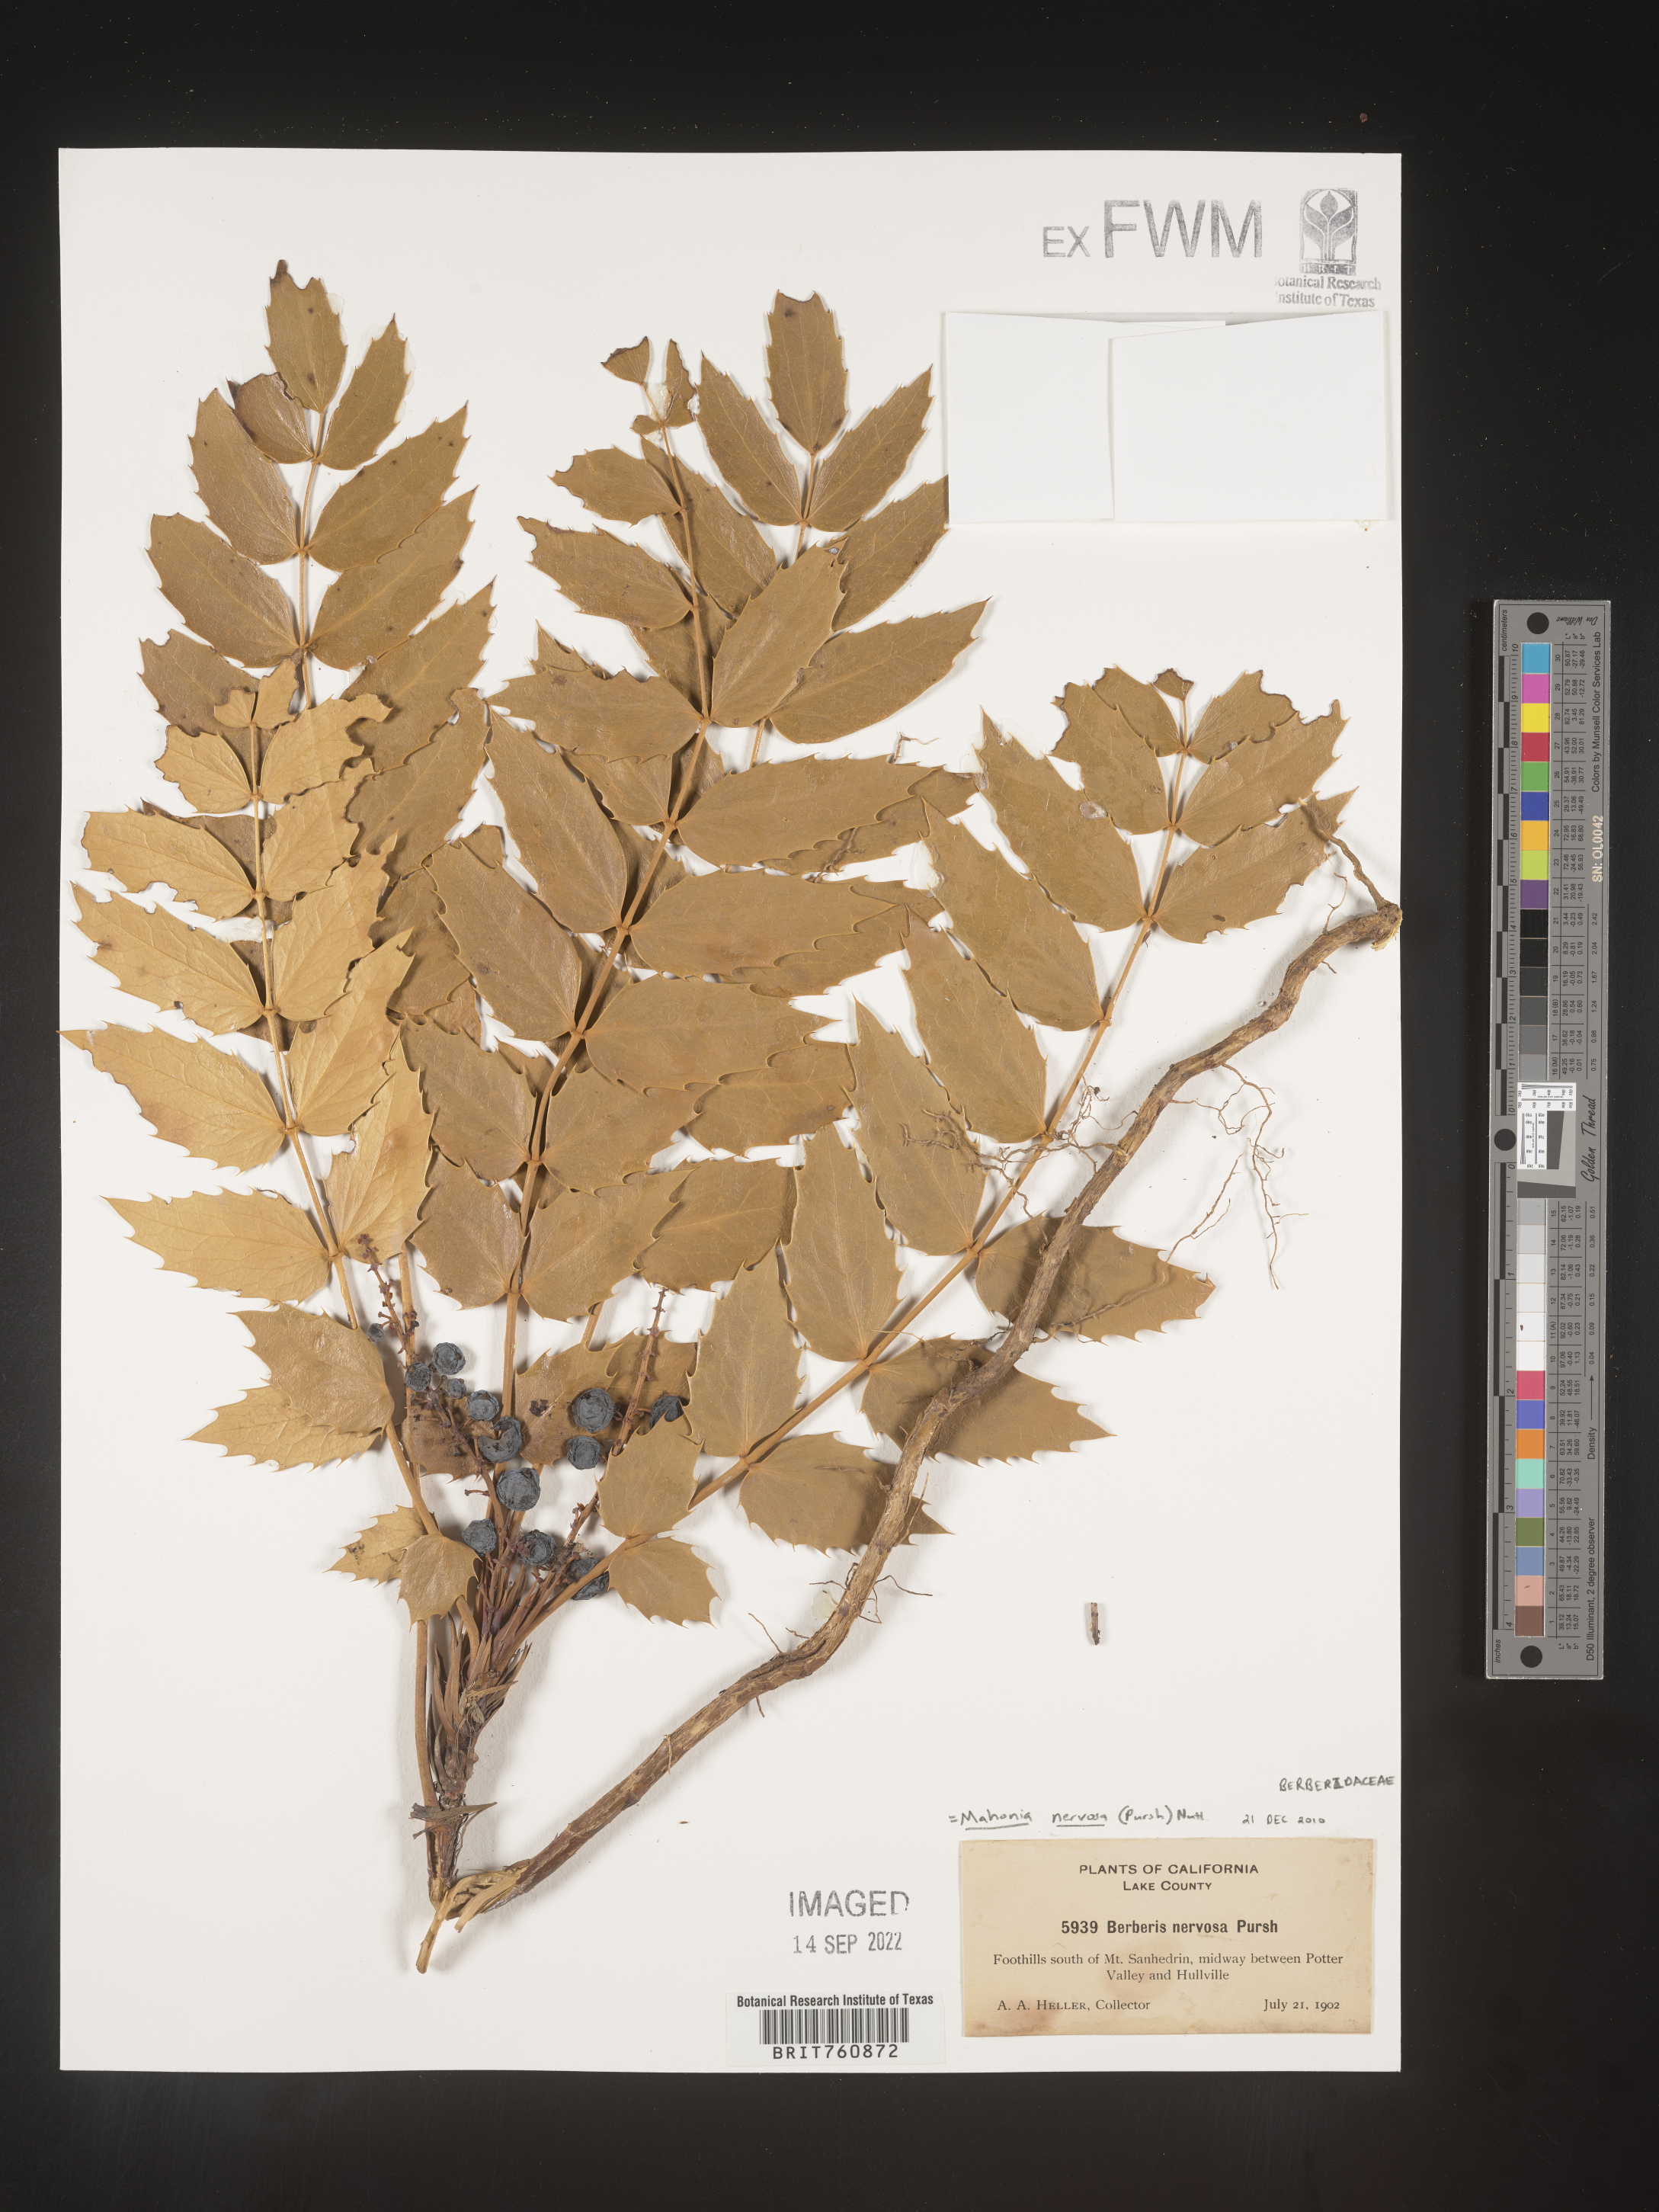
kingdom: Plantae
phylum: Tracheophyta
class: Magnoliopsida
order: Ranunculales
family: Berberidaceae
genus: Mahonia
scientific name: Mahonia
